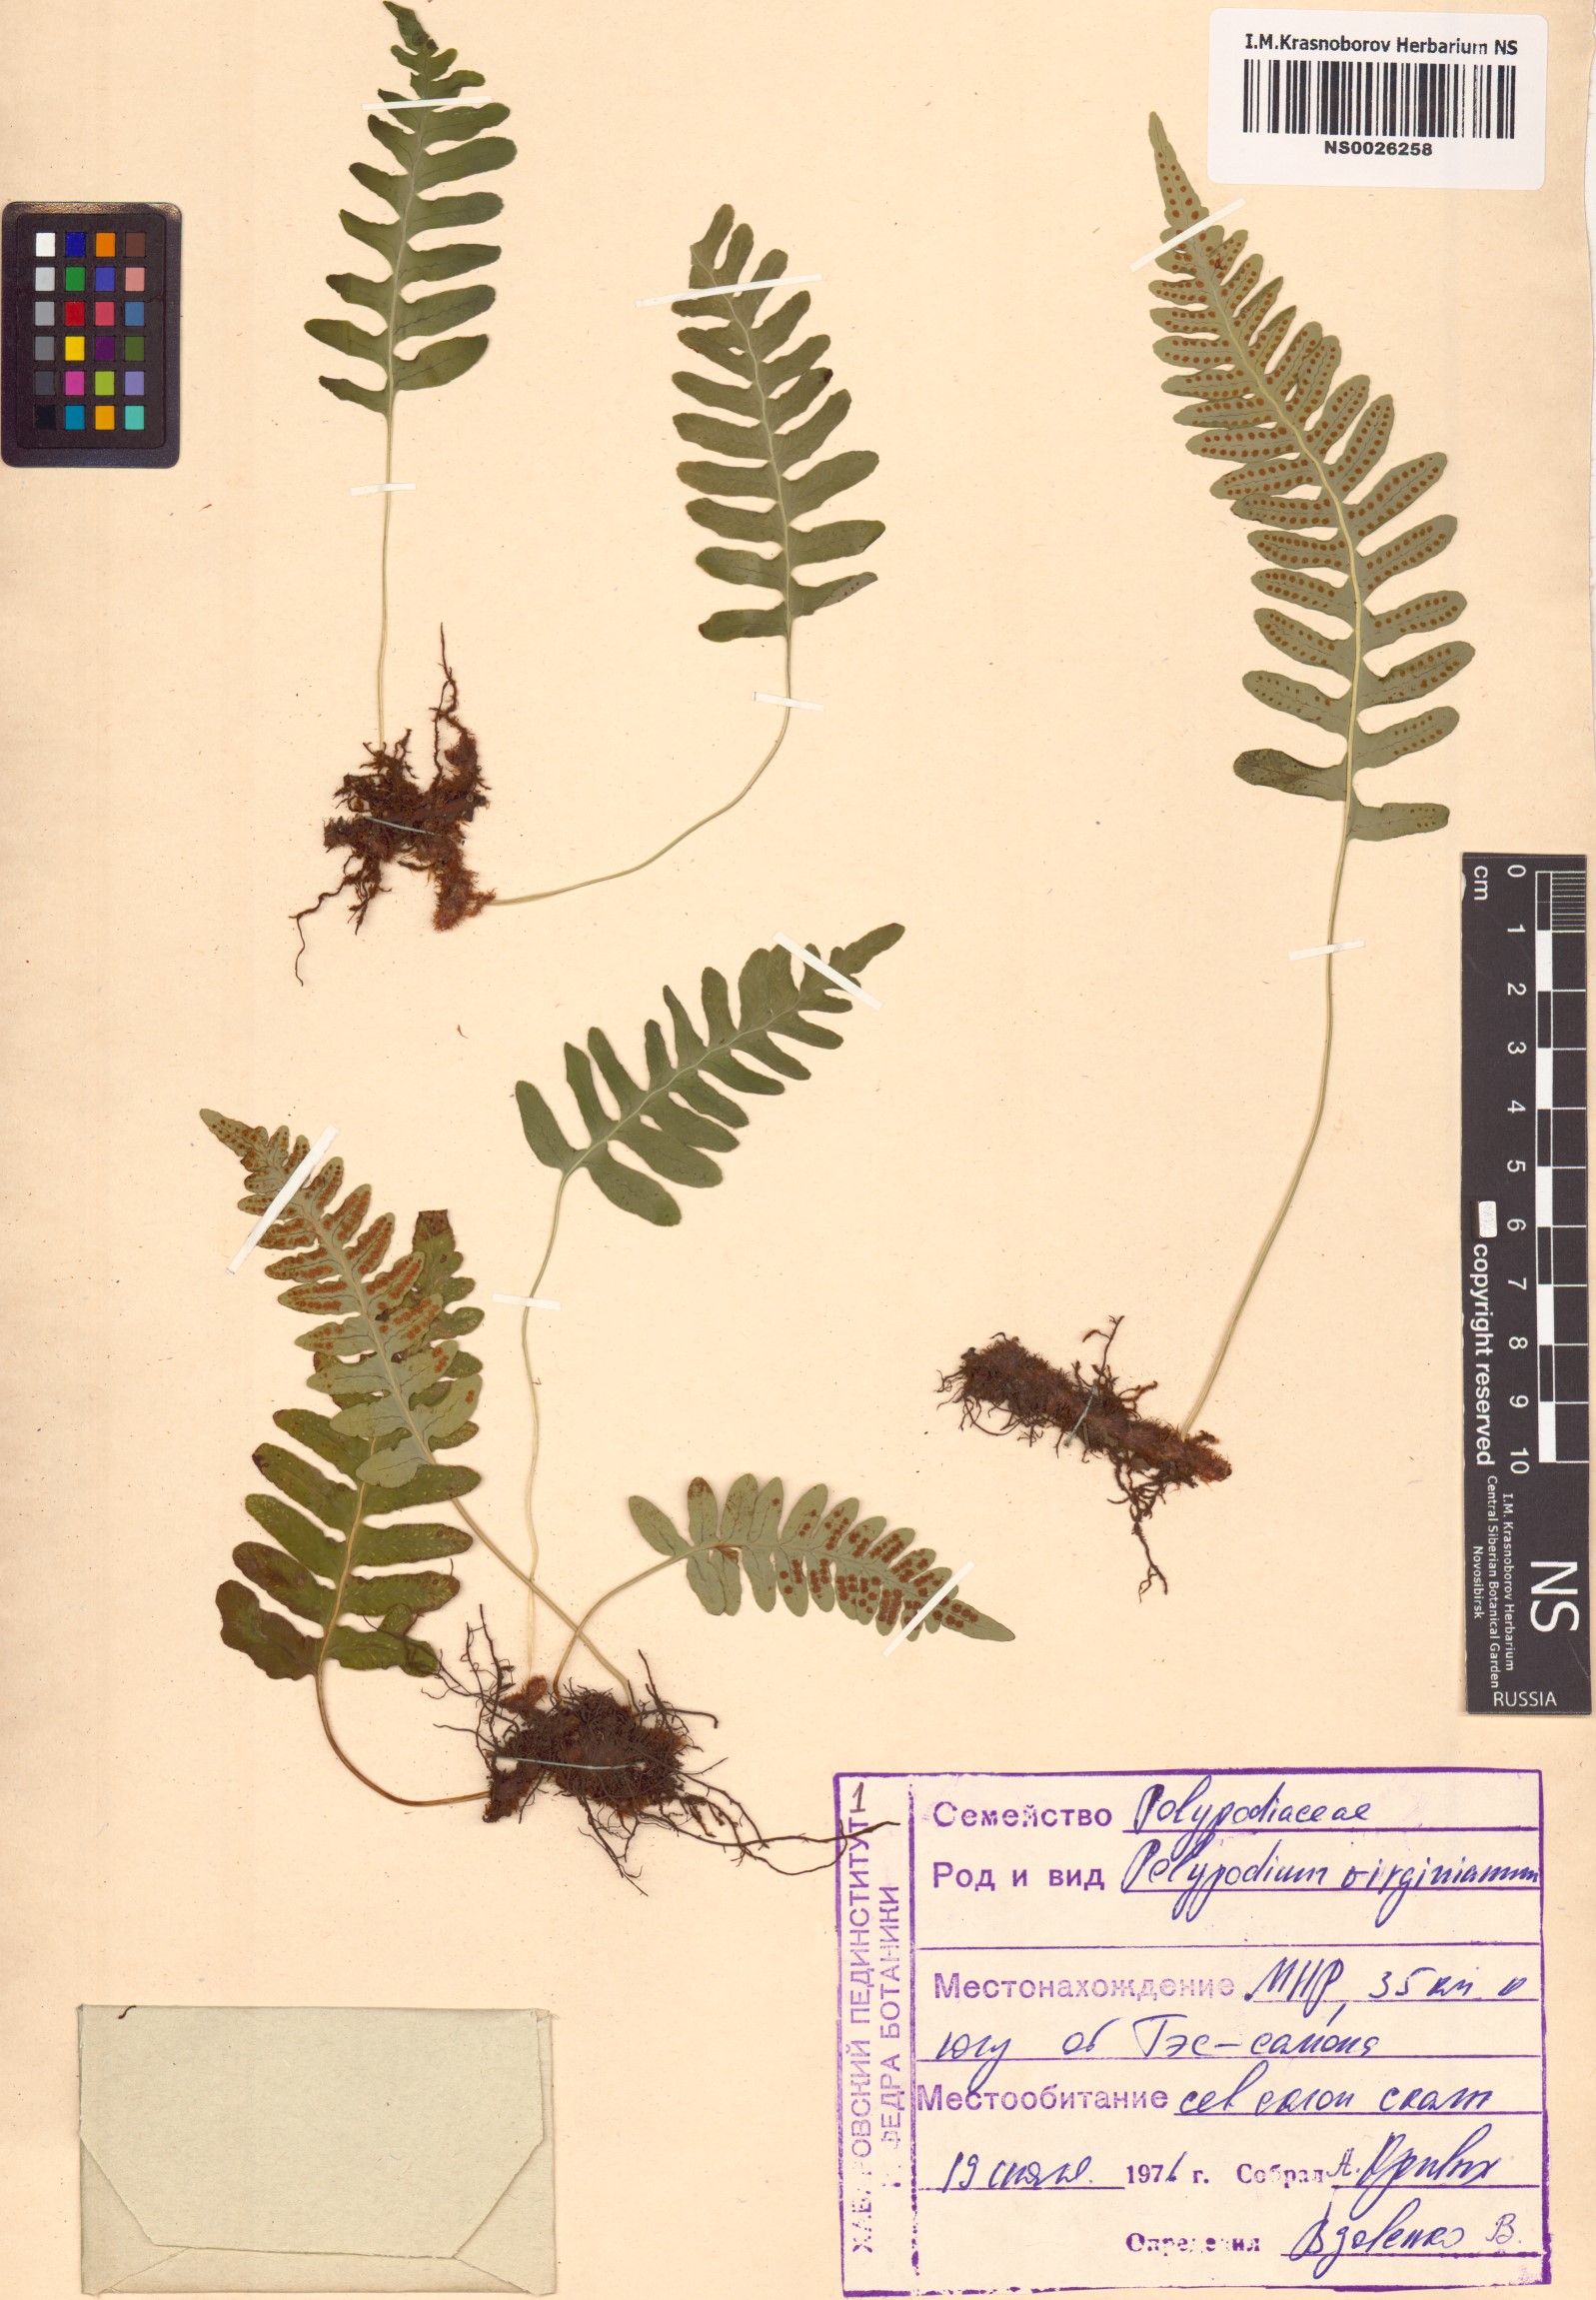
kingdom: Plantae
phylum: Tracheophyta
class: Polypodiopsida
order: Polypodiales
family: Polypodiaceae
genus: Polypodium
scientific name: Polypodium virginianum
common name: American wall fern
